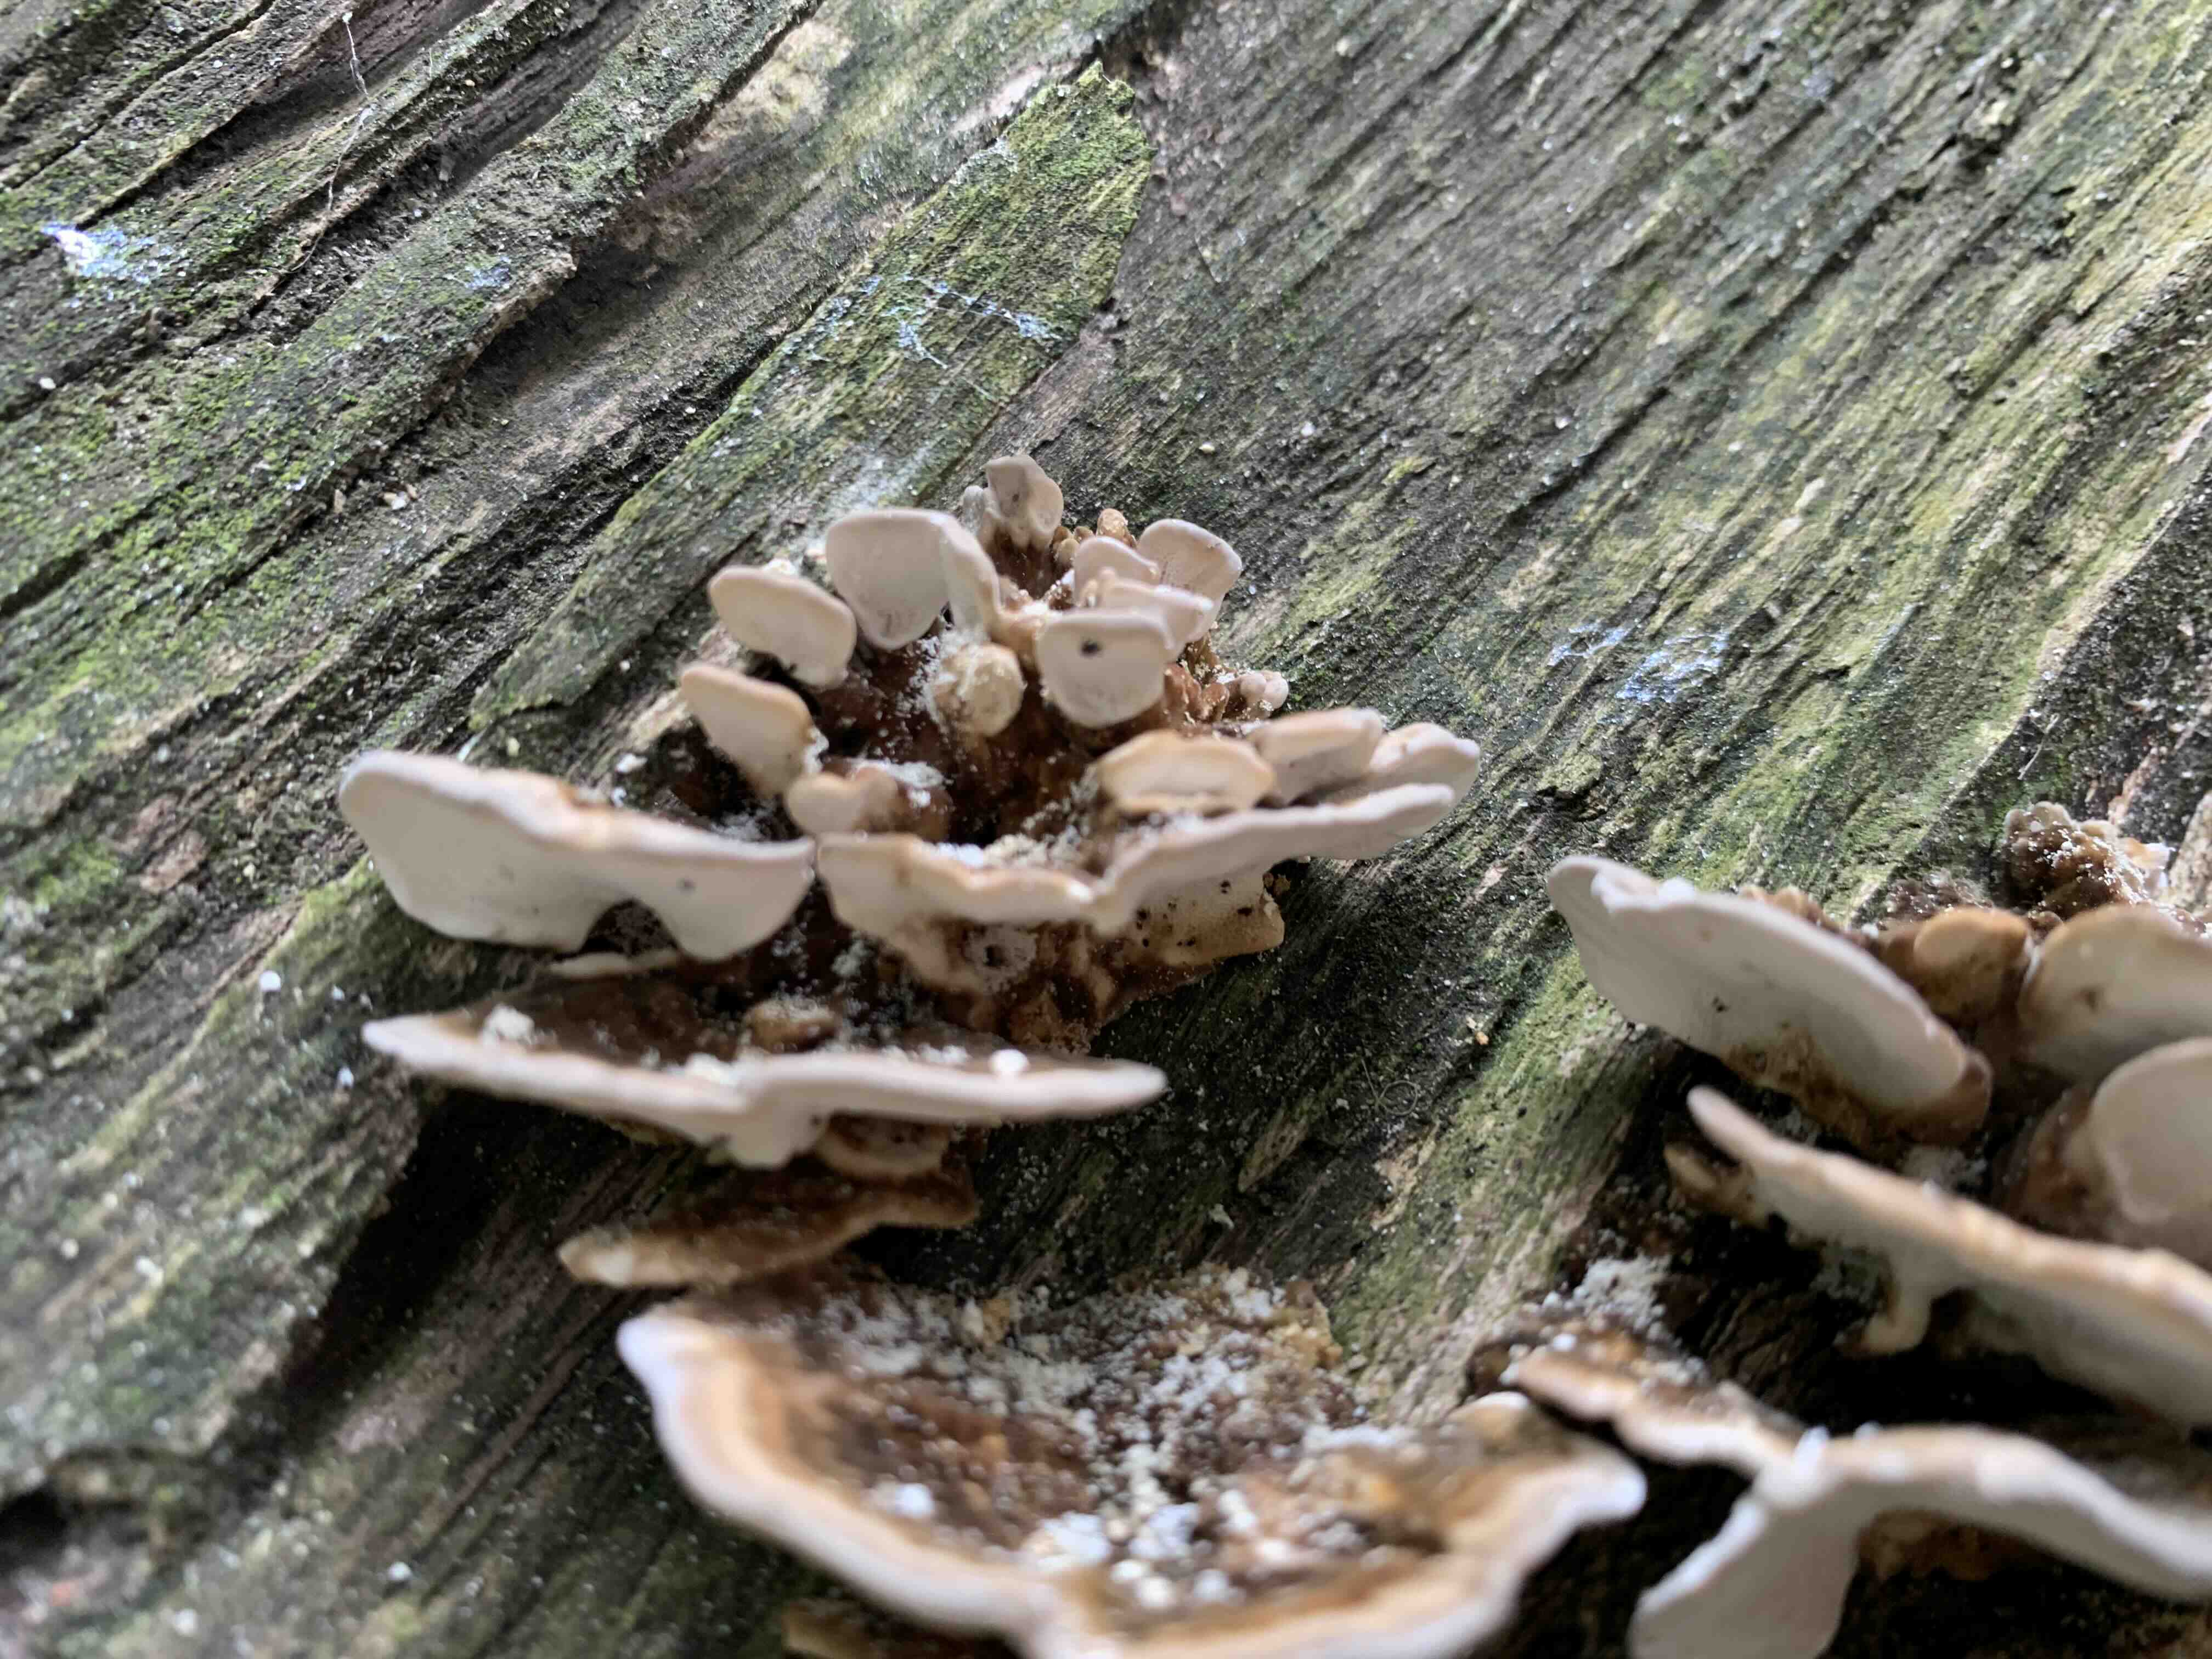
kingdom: Fungi
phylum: Basidiomycota
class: Agaricomycetes
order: Polyporales
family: Polyporaceae
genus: Trametes
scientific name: Trametes versicolor
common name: broget læderporesvamp
